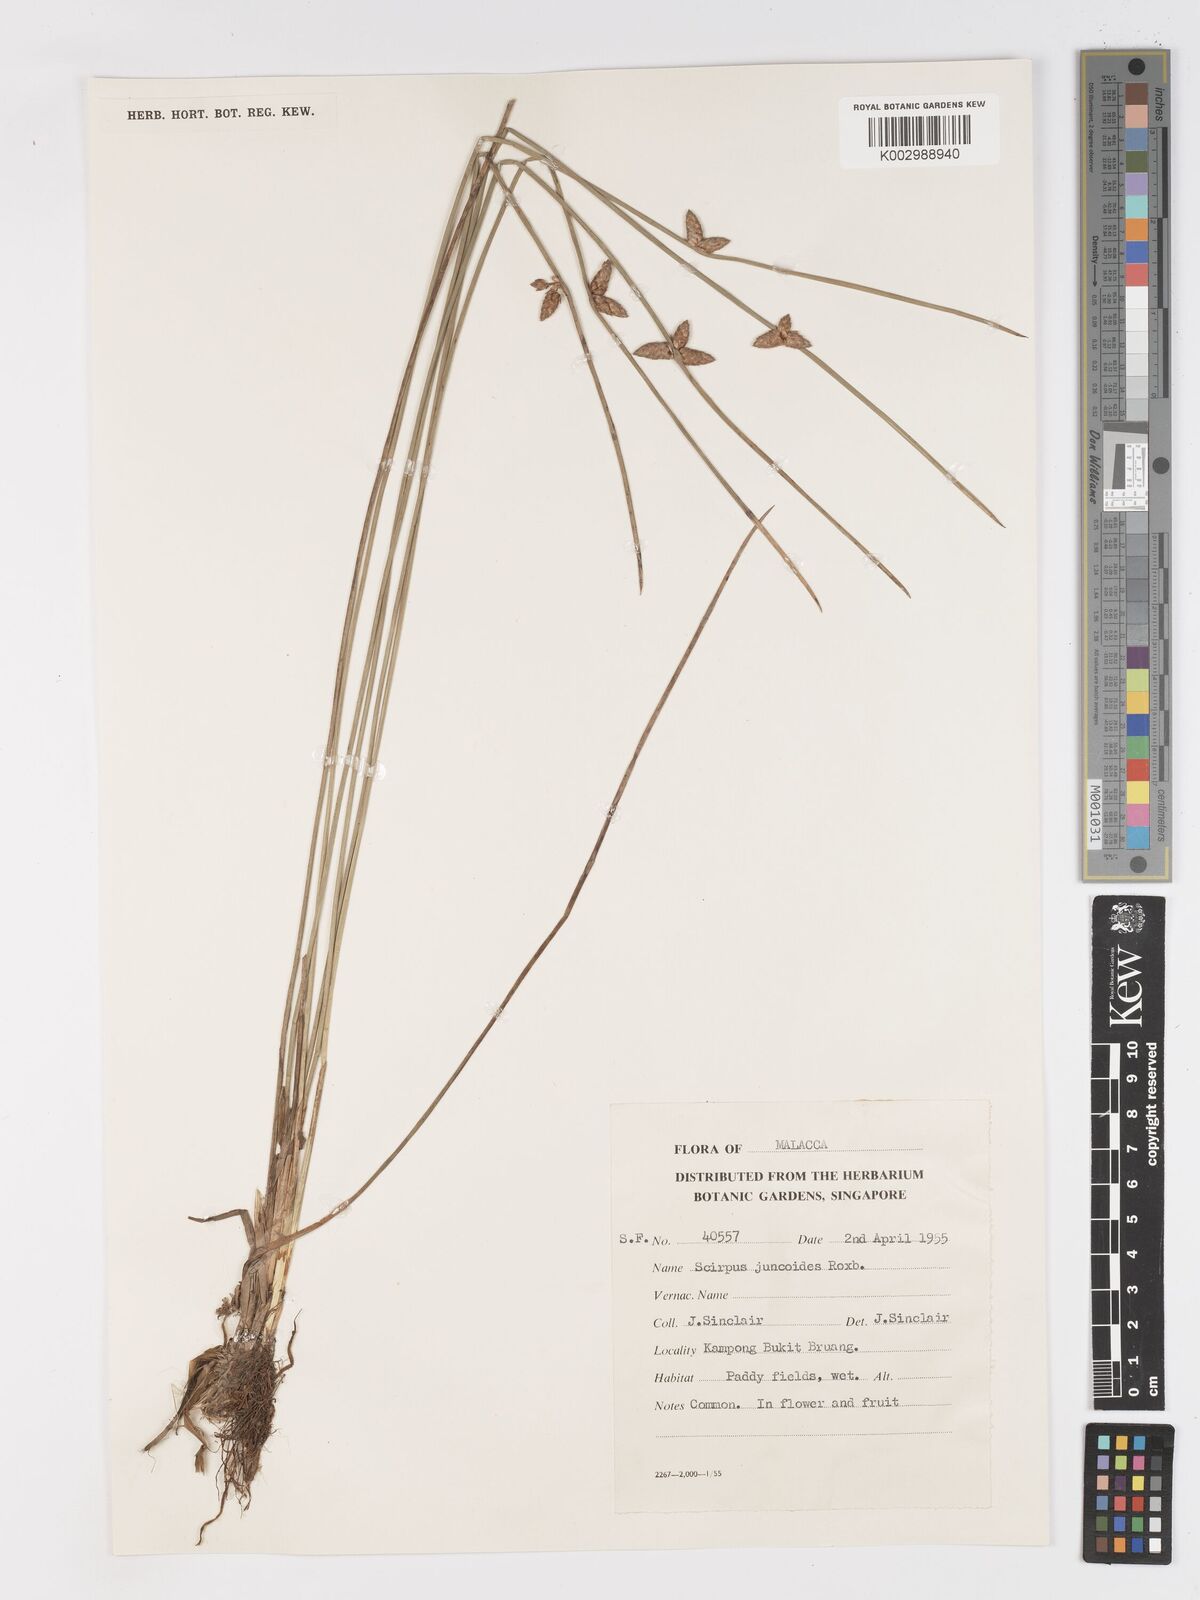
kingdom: Plantae
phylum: Tracheophyta
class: Liliopsida
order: Poales
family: Cyperaceae
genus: Schoenoplectiella
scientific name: Schoenoplectiella juncoides
